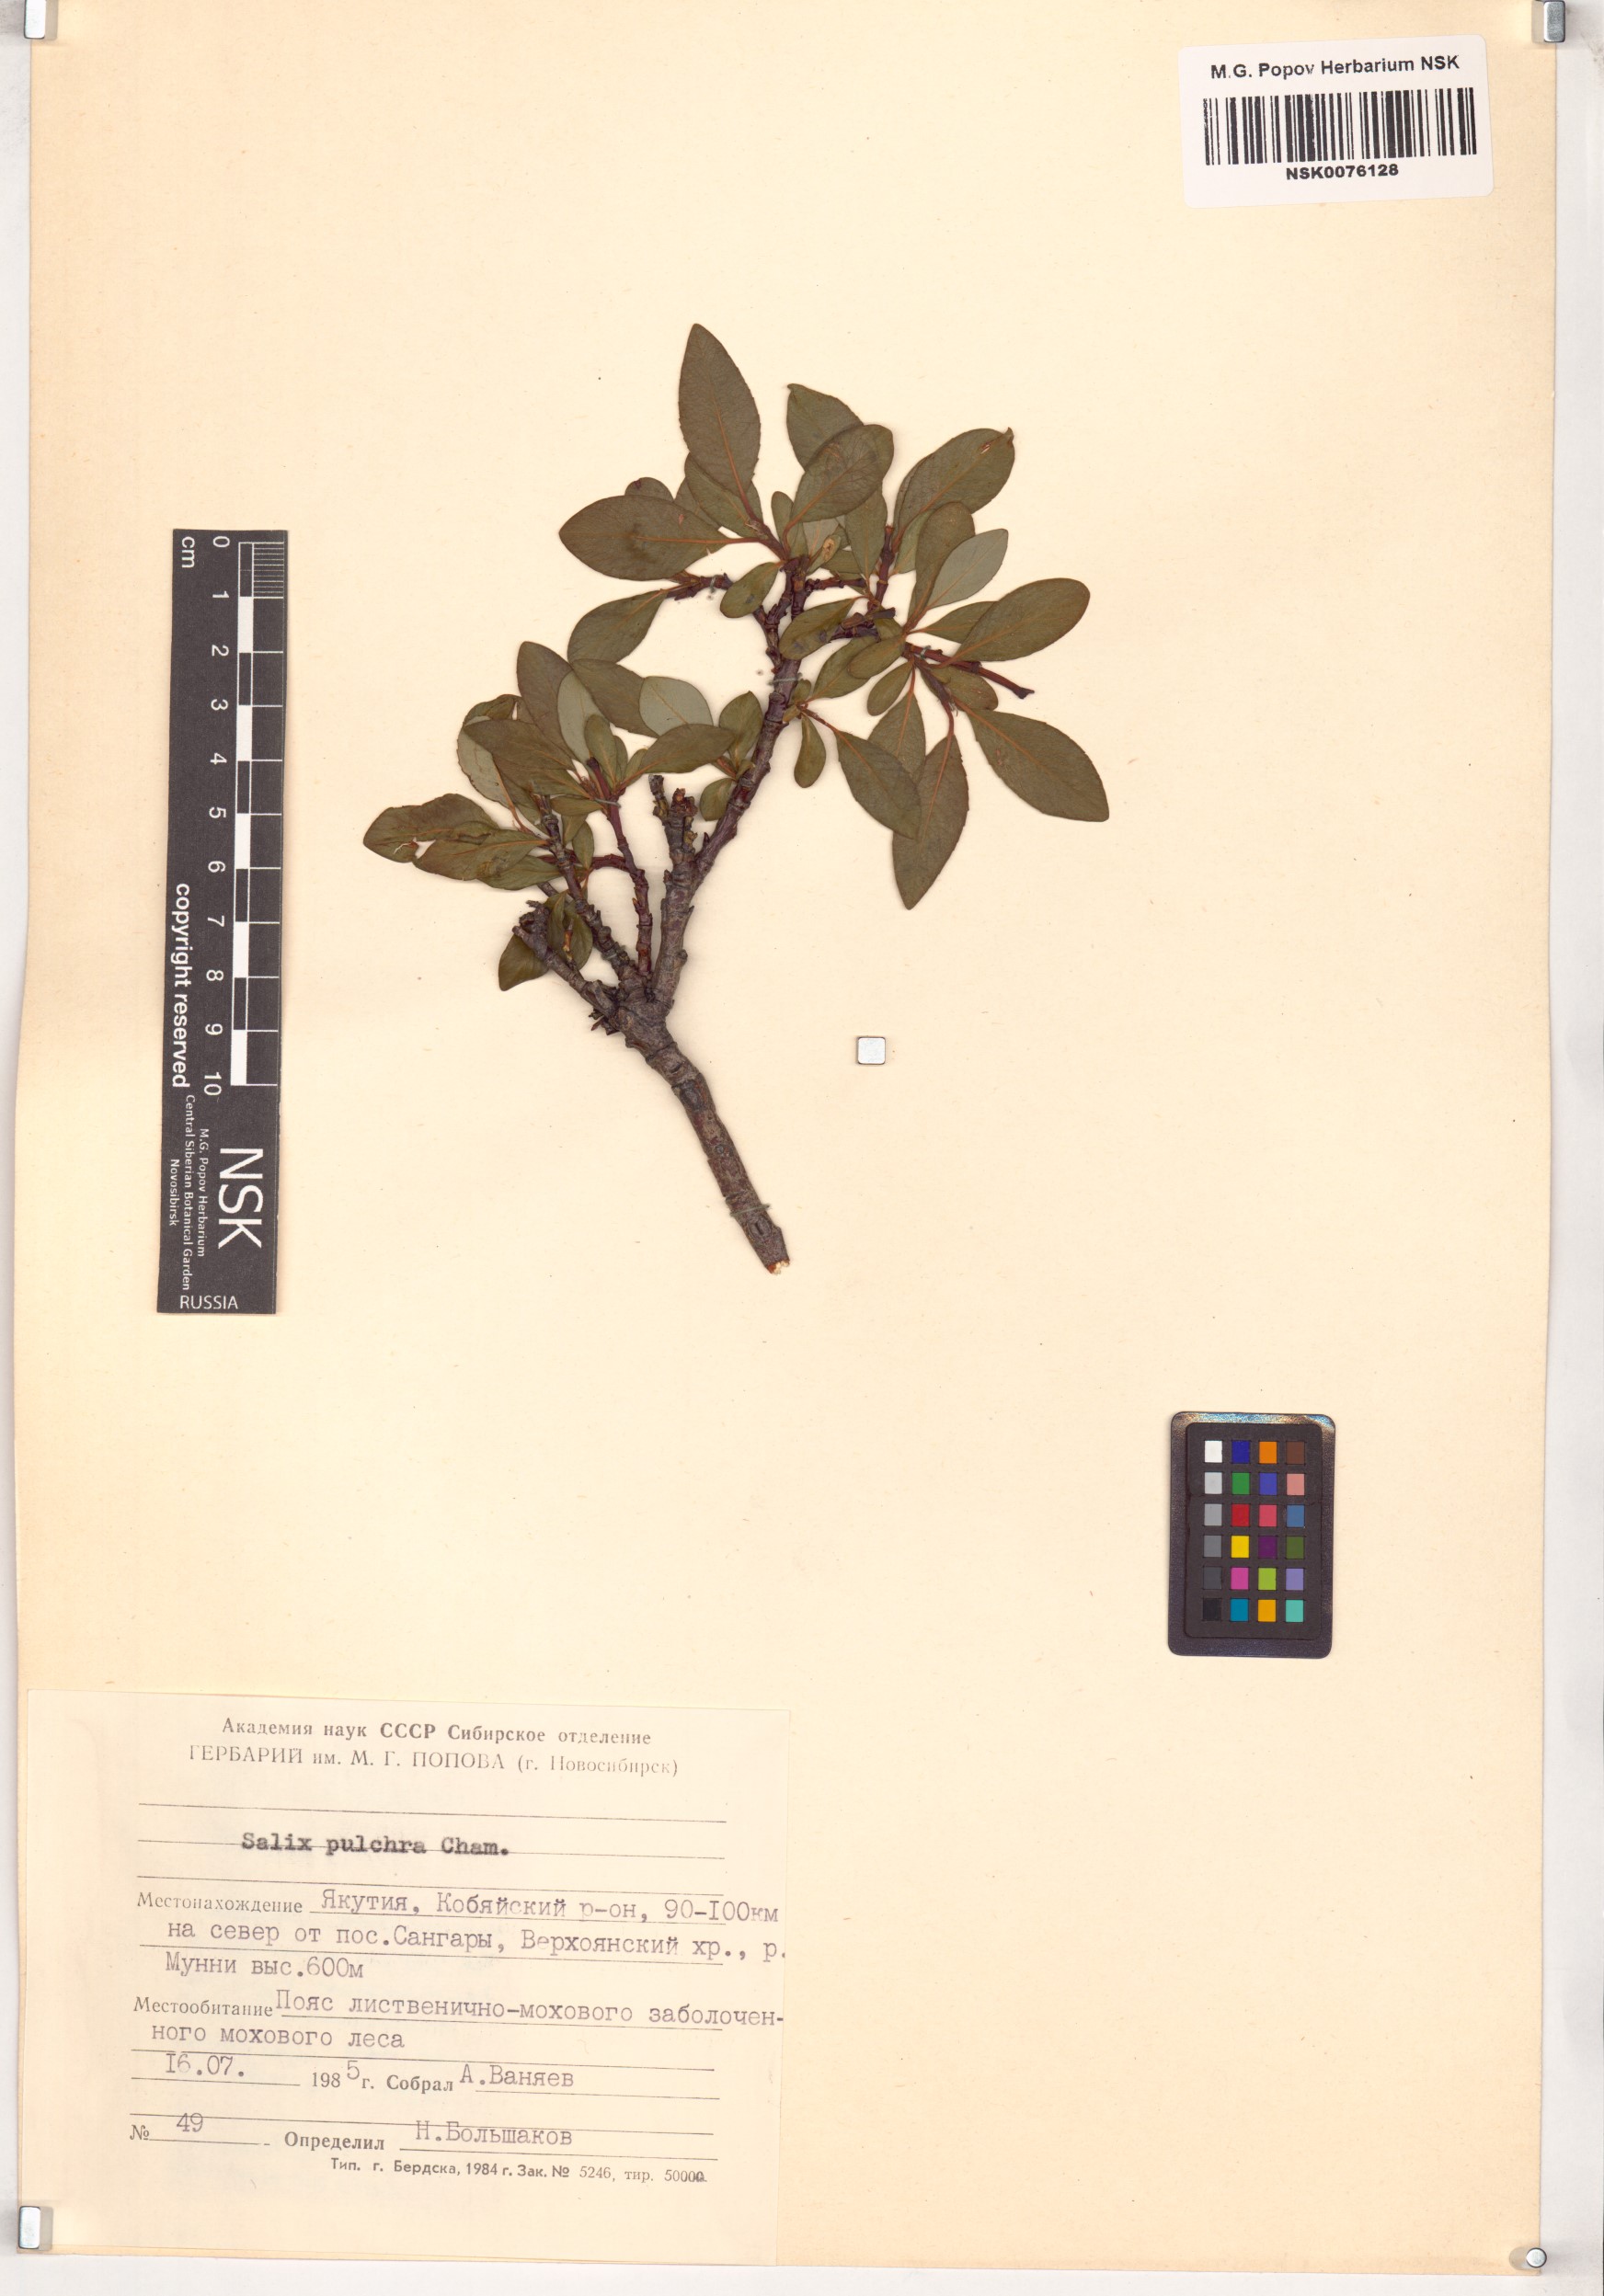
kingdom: Plantae
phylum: Tracheophyta
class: Magnoliopsida
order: Malpighiales
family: Salicaceae
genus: Salix
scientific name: Salix pulchra
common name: Diamond-leaved willow
